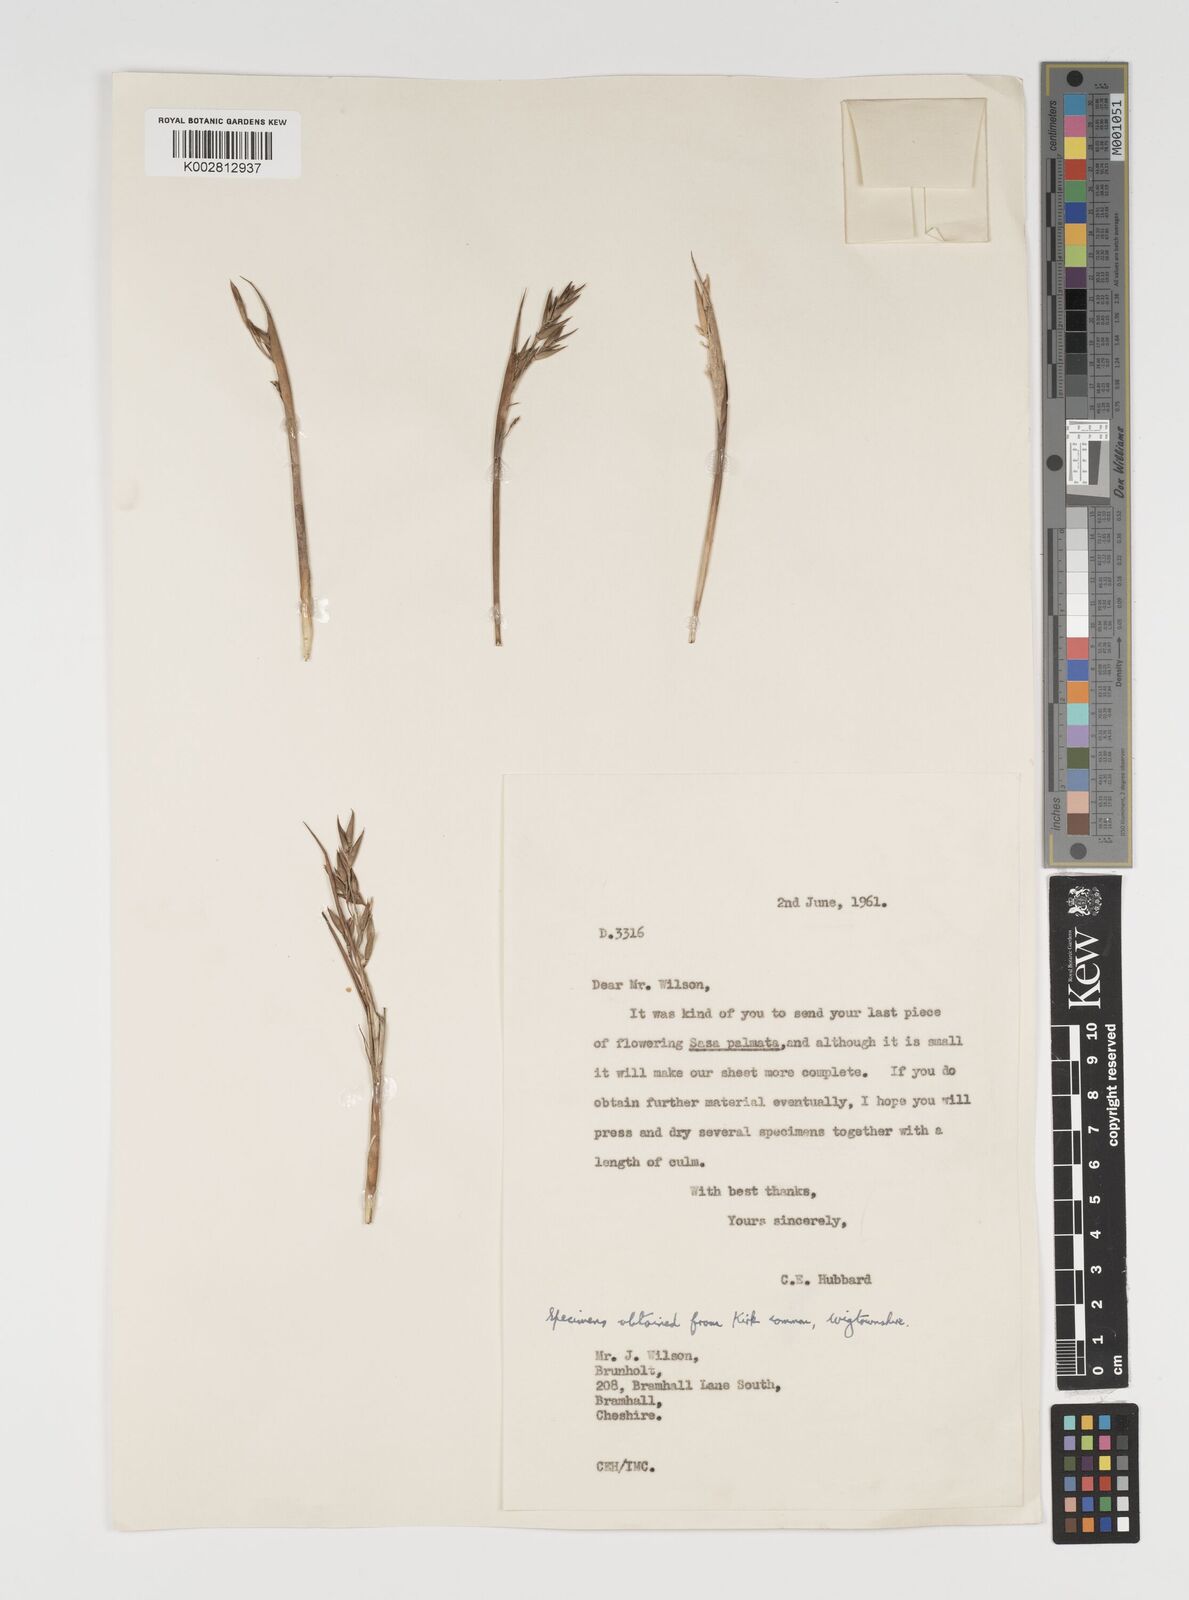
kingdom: Plantae
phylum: Tracheophyta
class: Liliopsida
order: Poales
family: Poaceae
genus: Sasa
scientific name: Sasa palmata
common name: Broad-leaved bamboo
